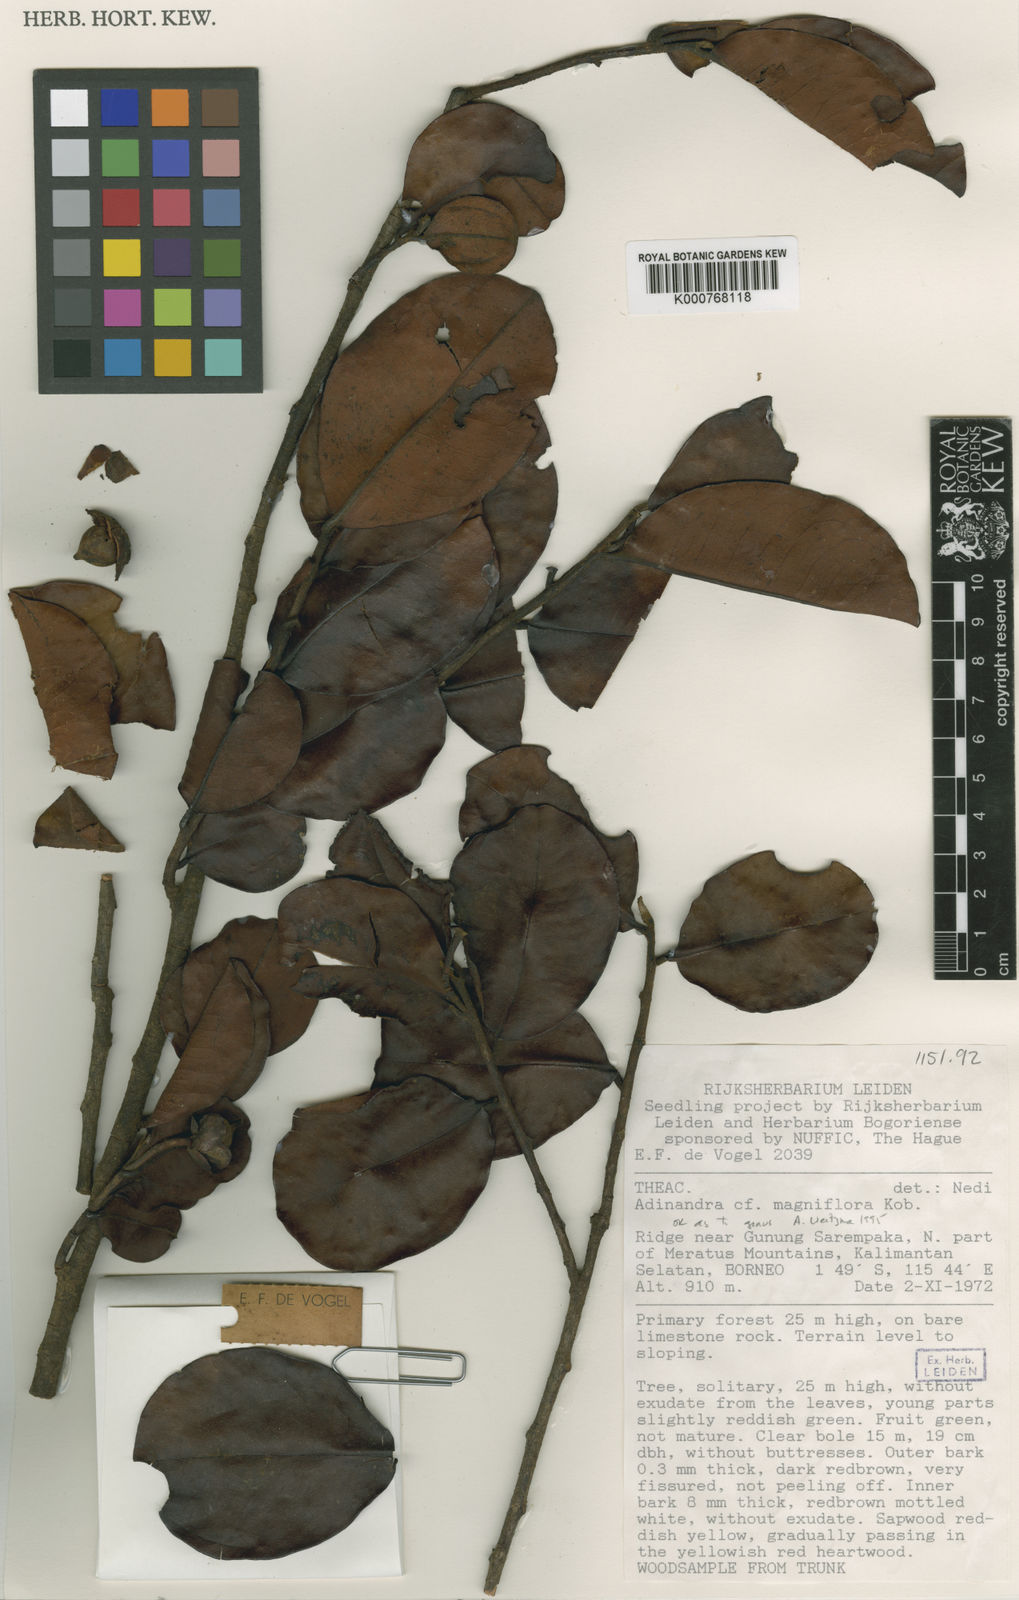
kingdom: Plantae
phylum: Tracheophyta
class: Magnoliopsida
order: Ericales
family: Pentaphylacaceae
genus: Adinandra
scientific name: Adinandra meratusensis
